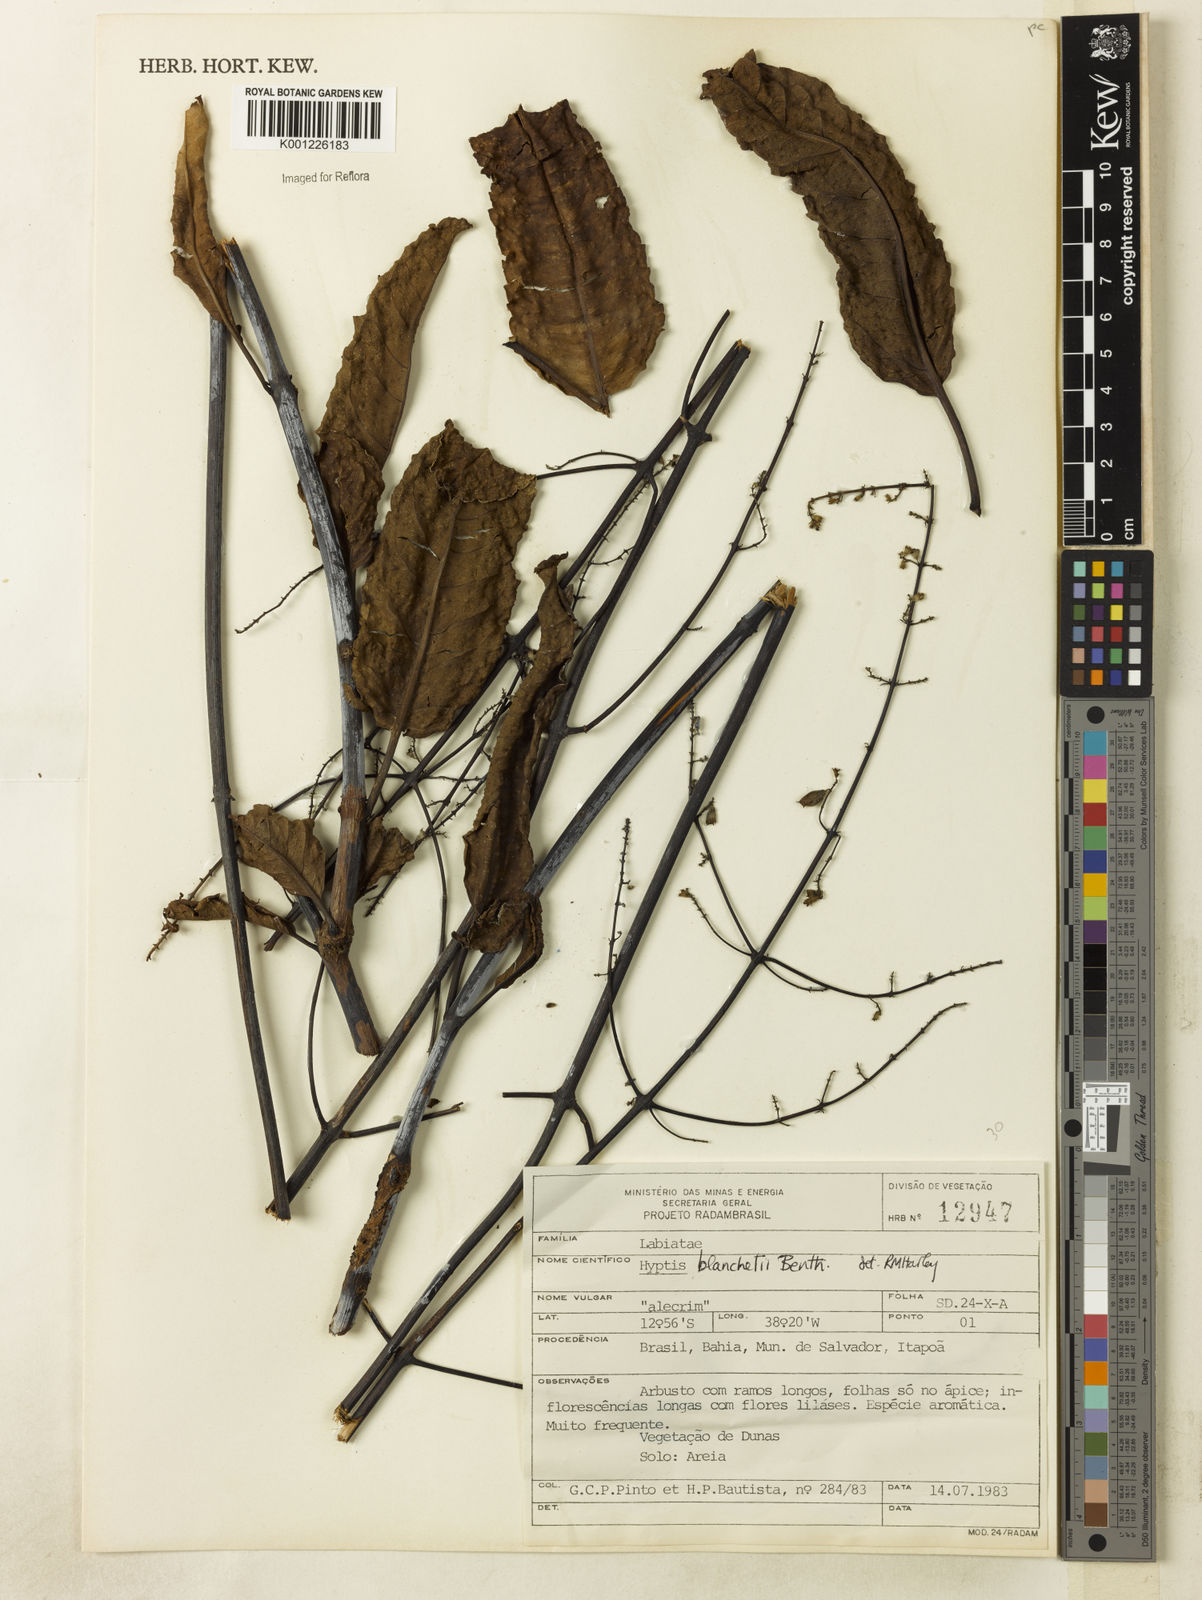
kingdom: Plantae
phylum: Tracheophyta
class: Magnoliopsida
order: Lamiales
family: Lamiaceae
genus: Eriope
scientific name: Eriope blanchetii
